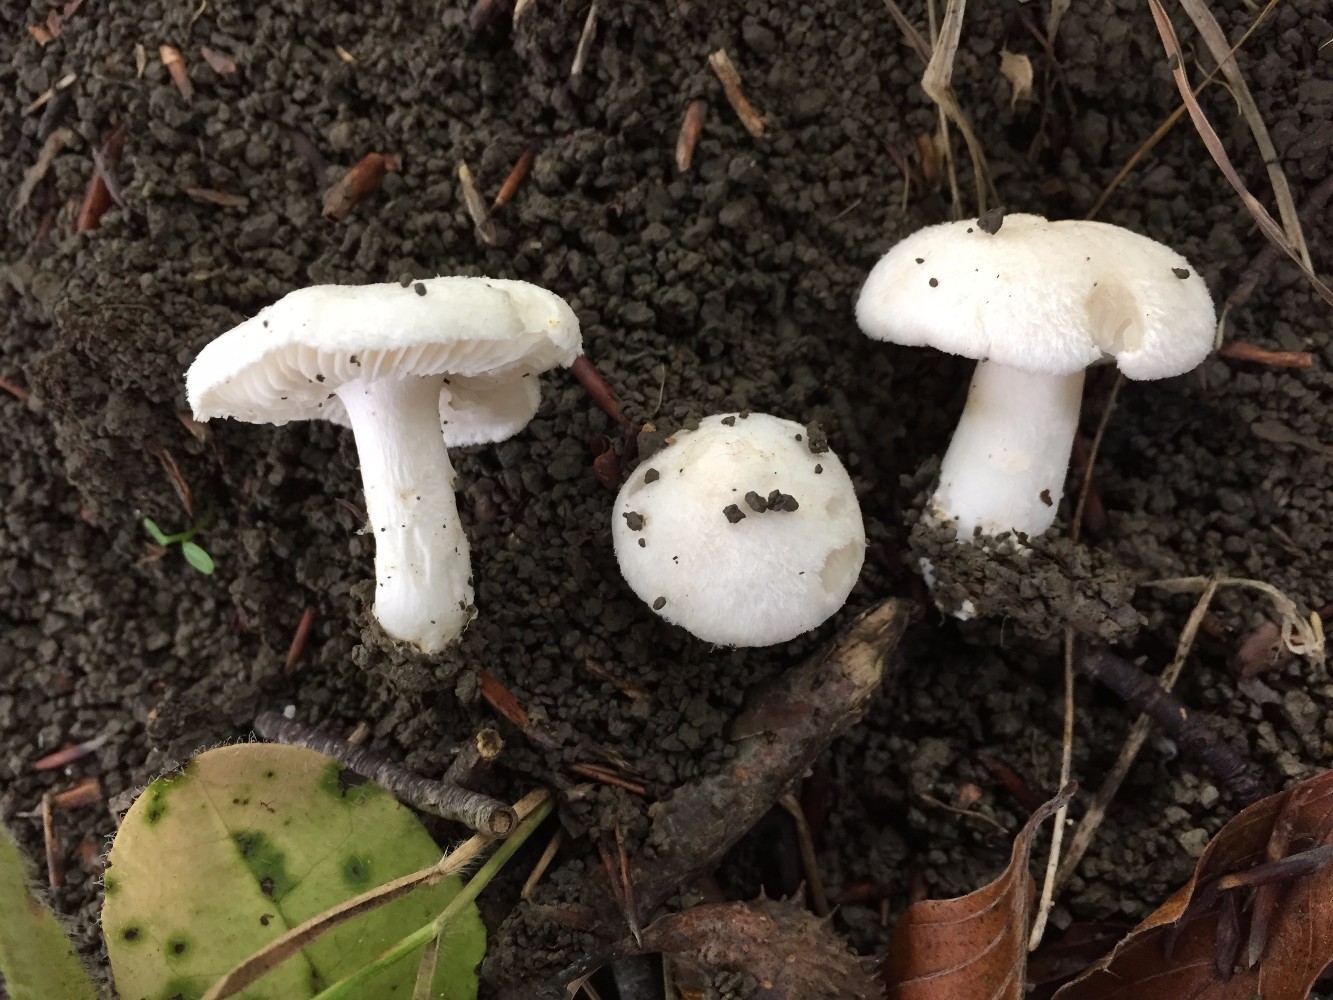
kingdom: Fungi
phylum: Basidiomycota
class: Agaricomycetes
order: Agaricales
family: Tricholomataceae
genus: Tricholoma
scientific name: Tricholoma terreum
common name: jordfarvet ridderhat
